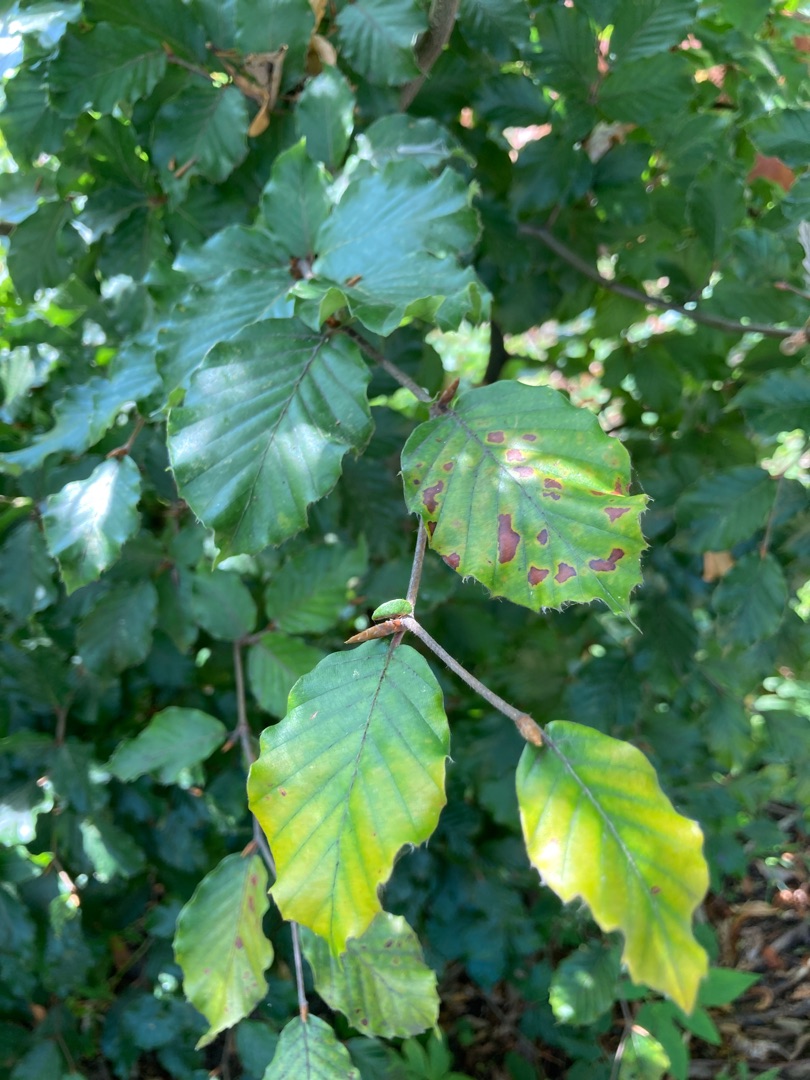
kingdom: Plantae
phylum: Tracheophyta
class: Magnoliopsida
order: Fagales
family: Fagaceae
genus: Fagus
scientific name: Fagus sylvatica
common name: Bøg
